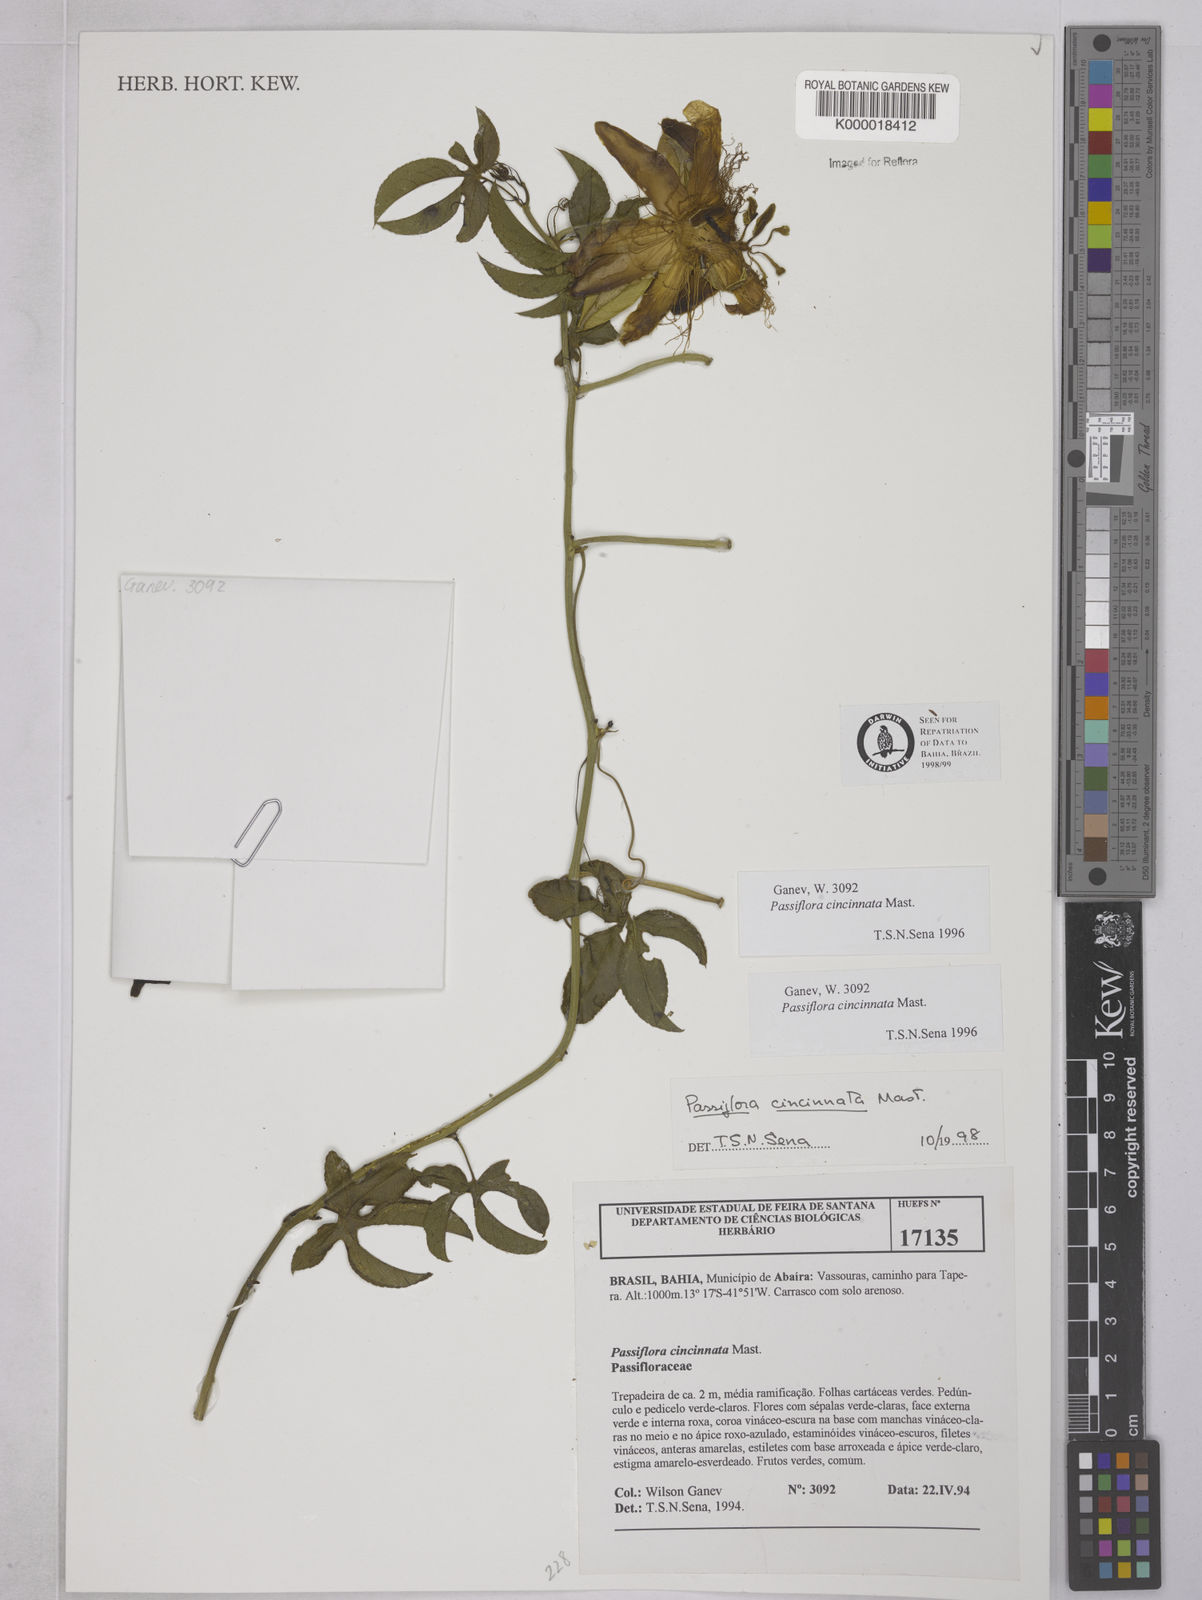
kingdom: Plantae
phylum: Tracheophyta
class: Magnoliopsida
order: Malpighiales
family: Passifloraceae
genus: Passiflora
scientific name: Passiflora cincinnata
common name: Crato passionvine
